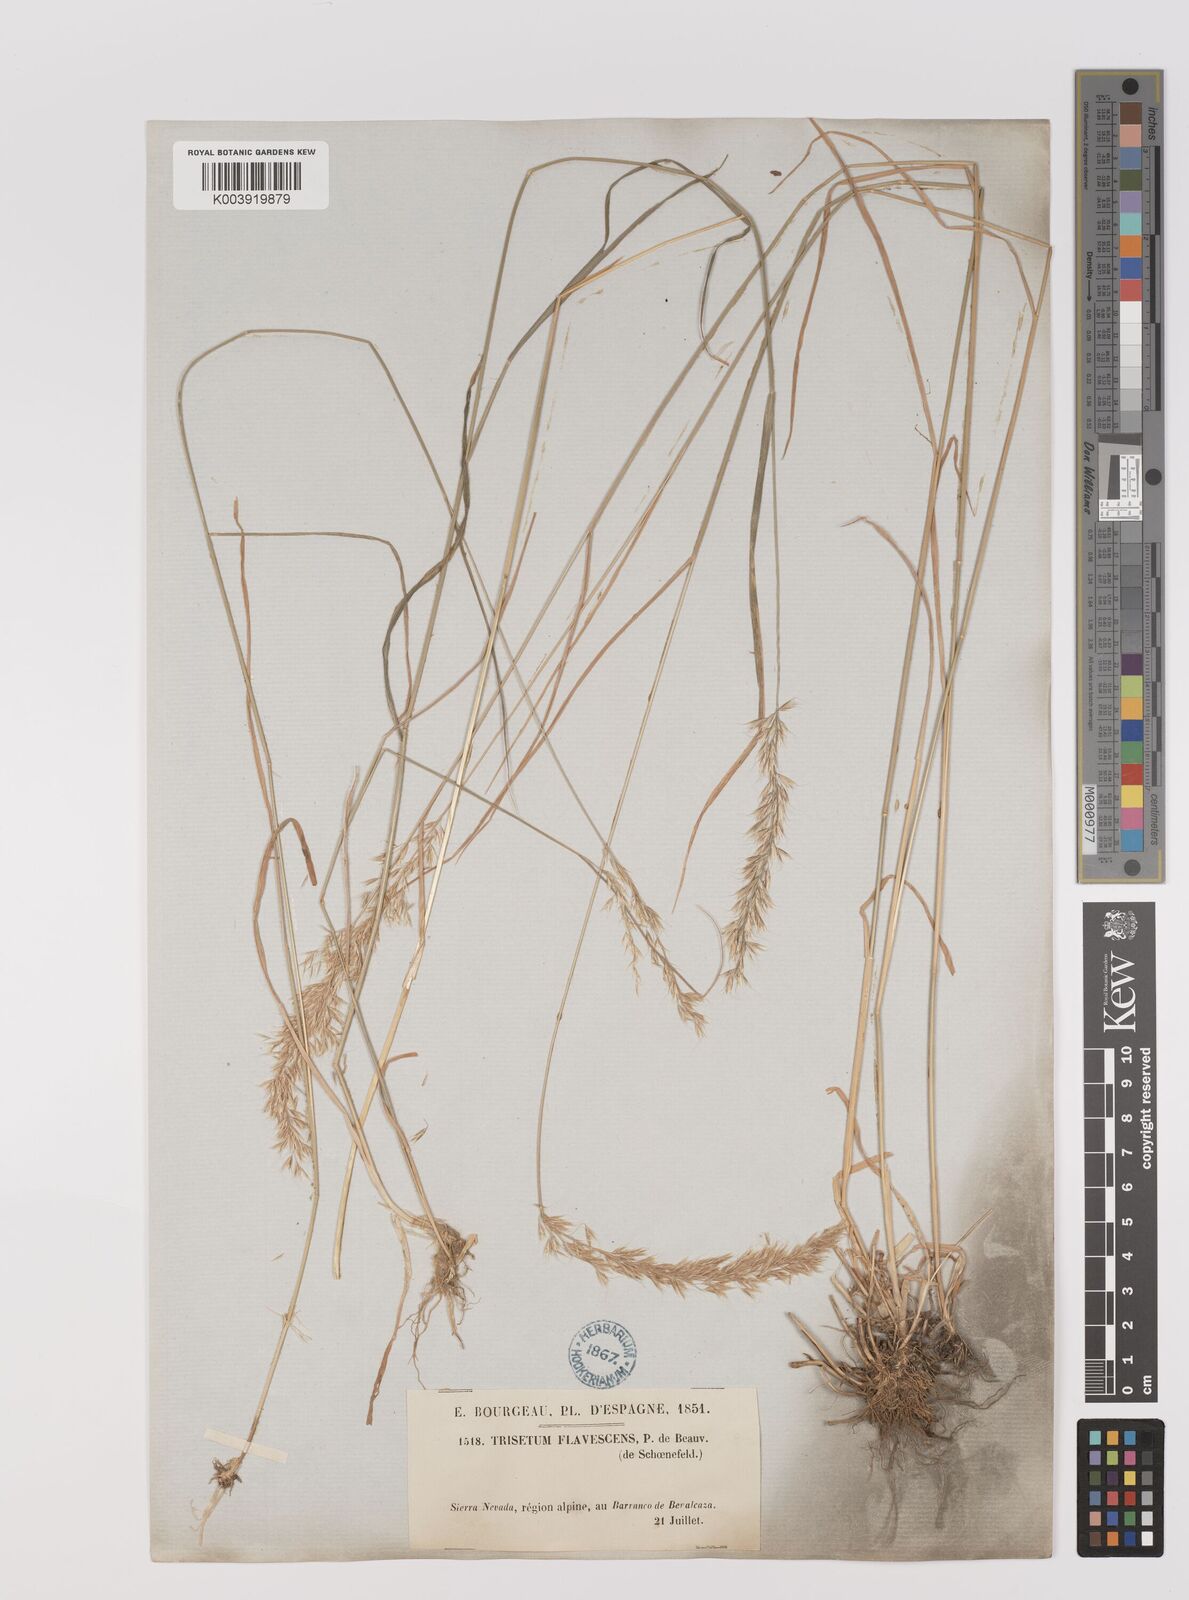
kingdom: Plantae
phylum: Tracheophyta
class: Liliopsida
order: Poales
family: Poaceae
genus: Trisetum
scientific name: Trisetum flavescens
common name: Yellow oat-grass
